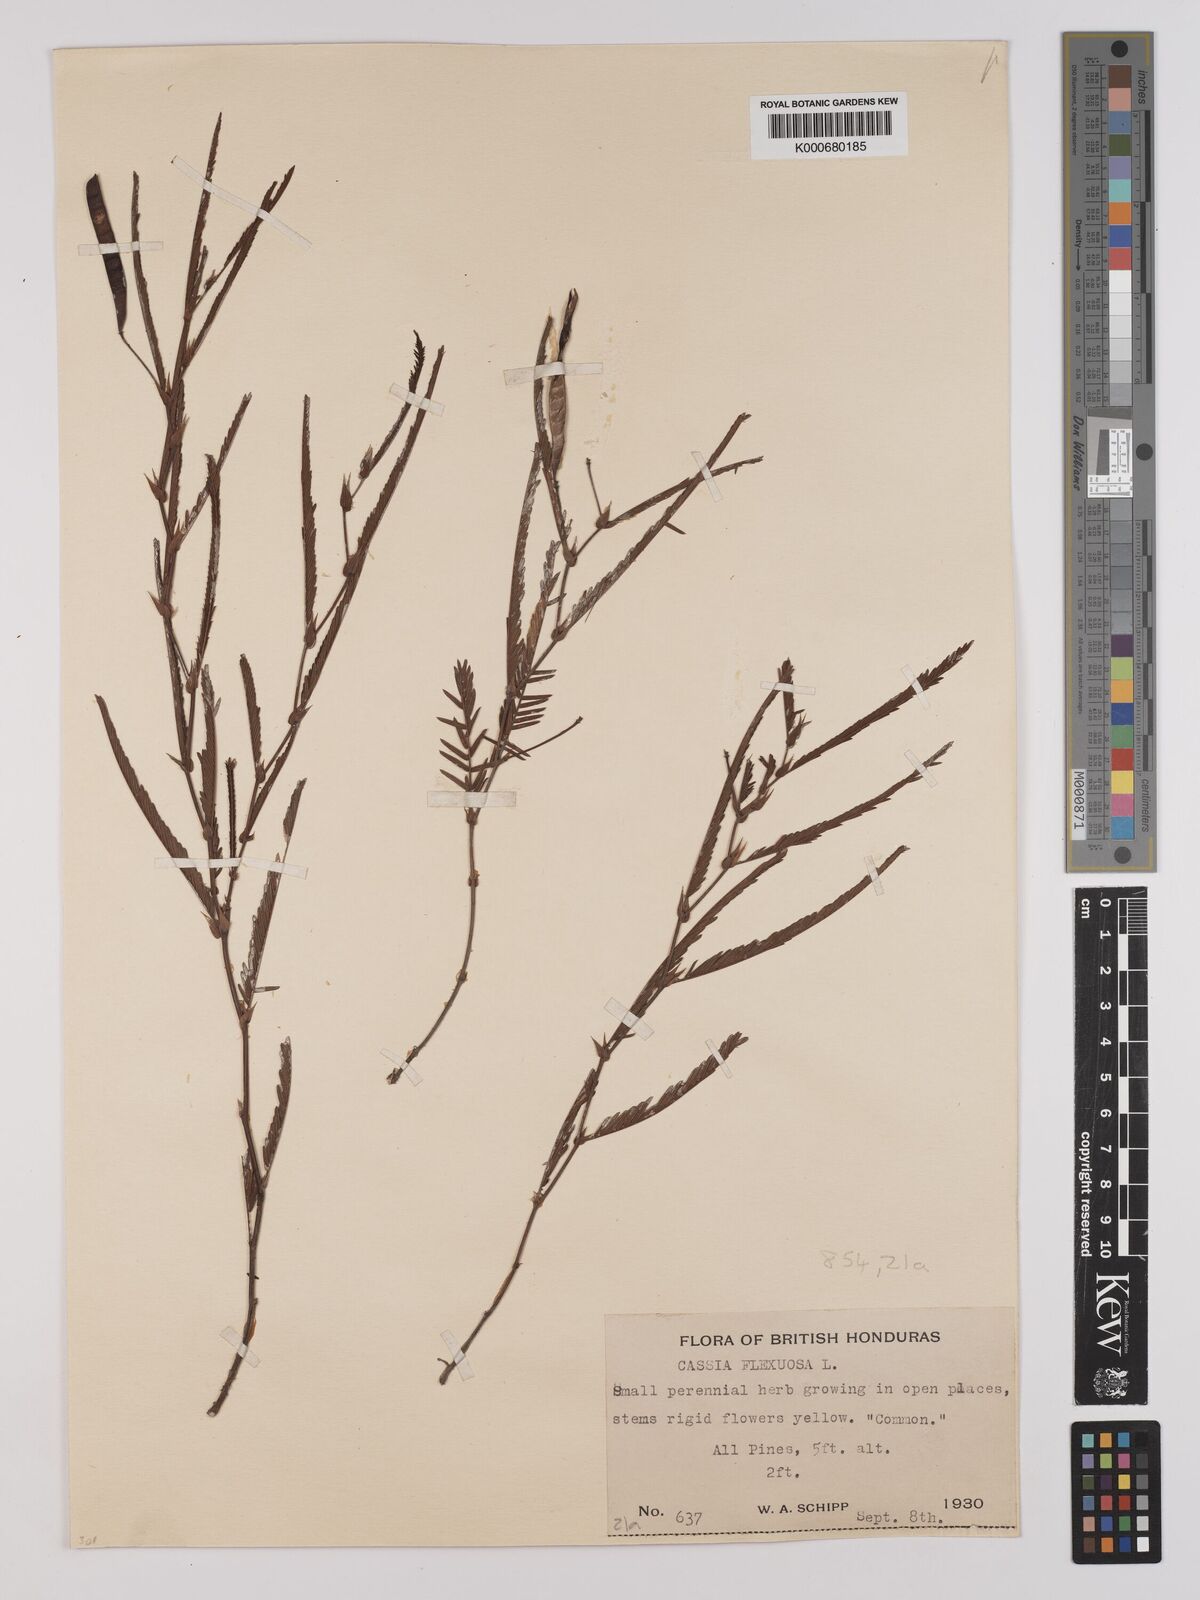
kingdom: Plantae
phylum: Tracheophyta
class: Magnoliopsida
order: Fabales
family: Fabaceae
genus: Chamaecrista
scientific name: Chamaecrista flexuosa
